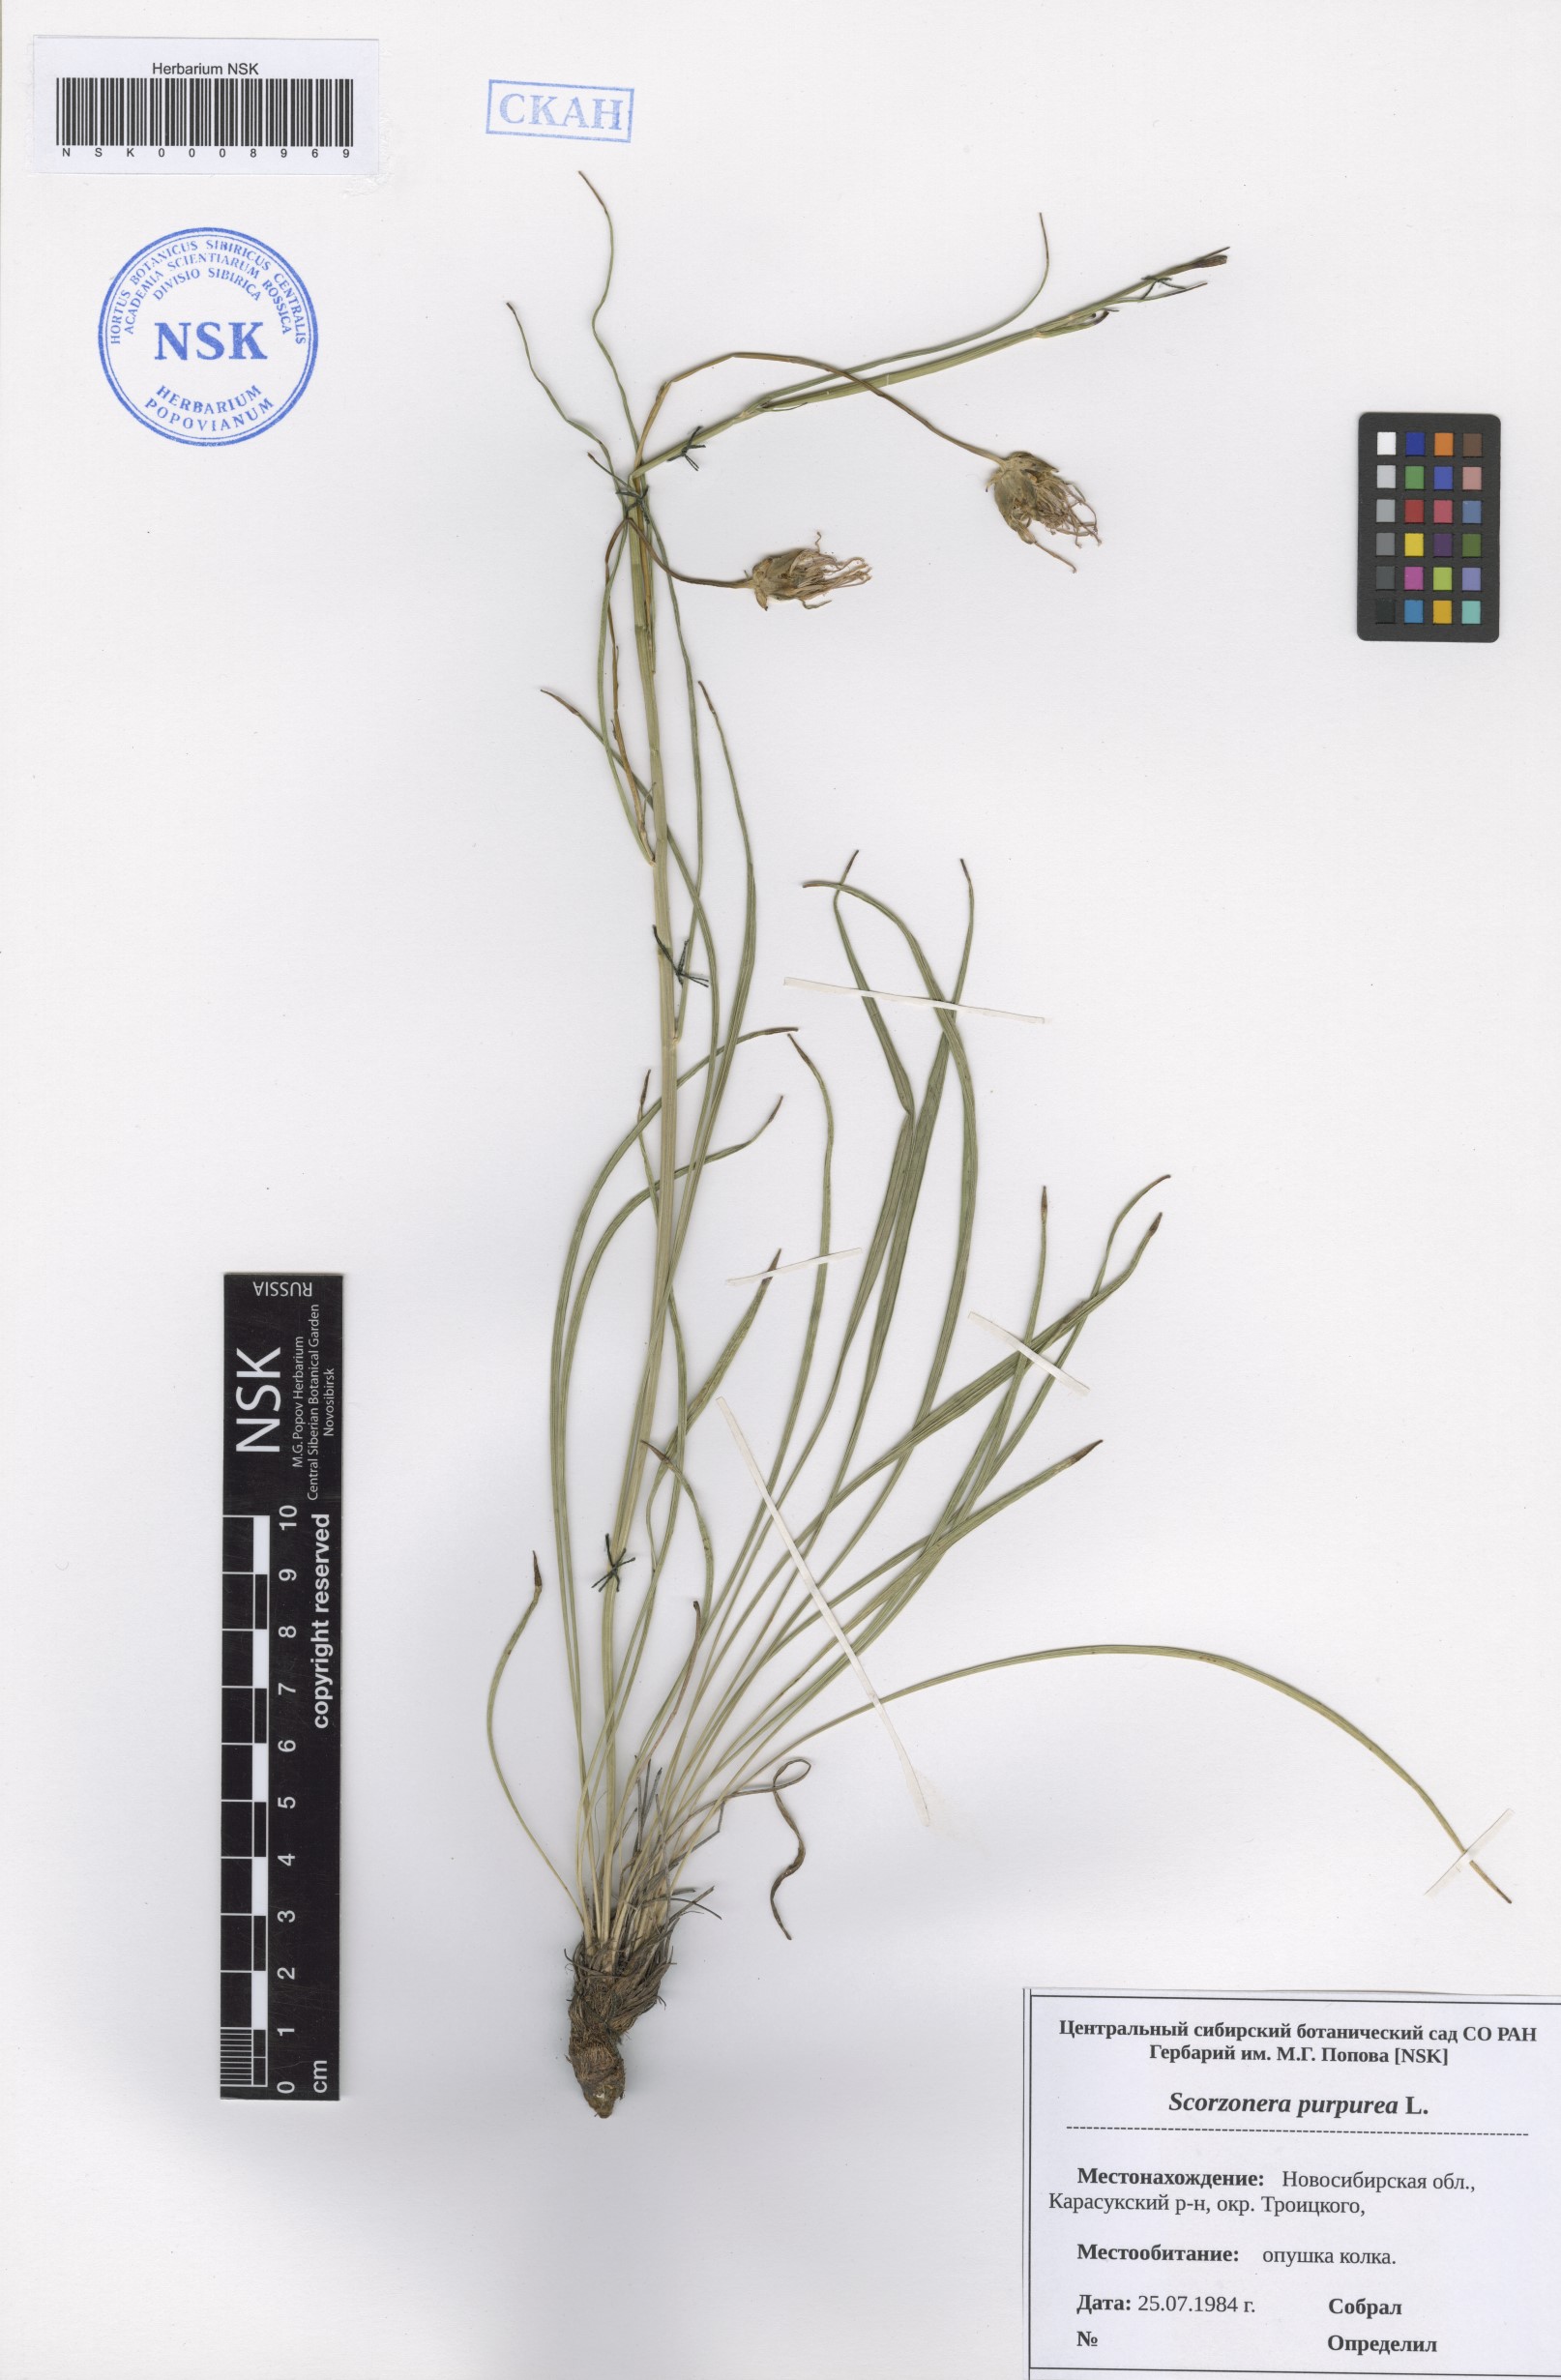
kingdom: Plantae
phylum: Tracheophyta
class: Magnoliopsida
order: Asterales
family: Asteraceae
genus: Scorzonera
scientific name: Scorzonera purpurea
